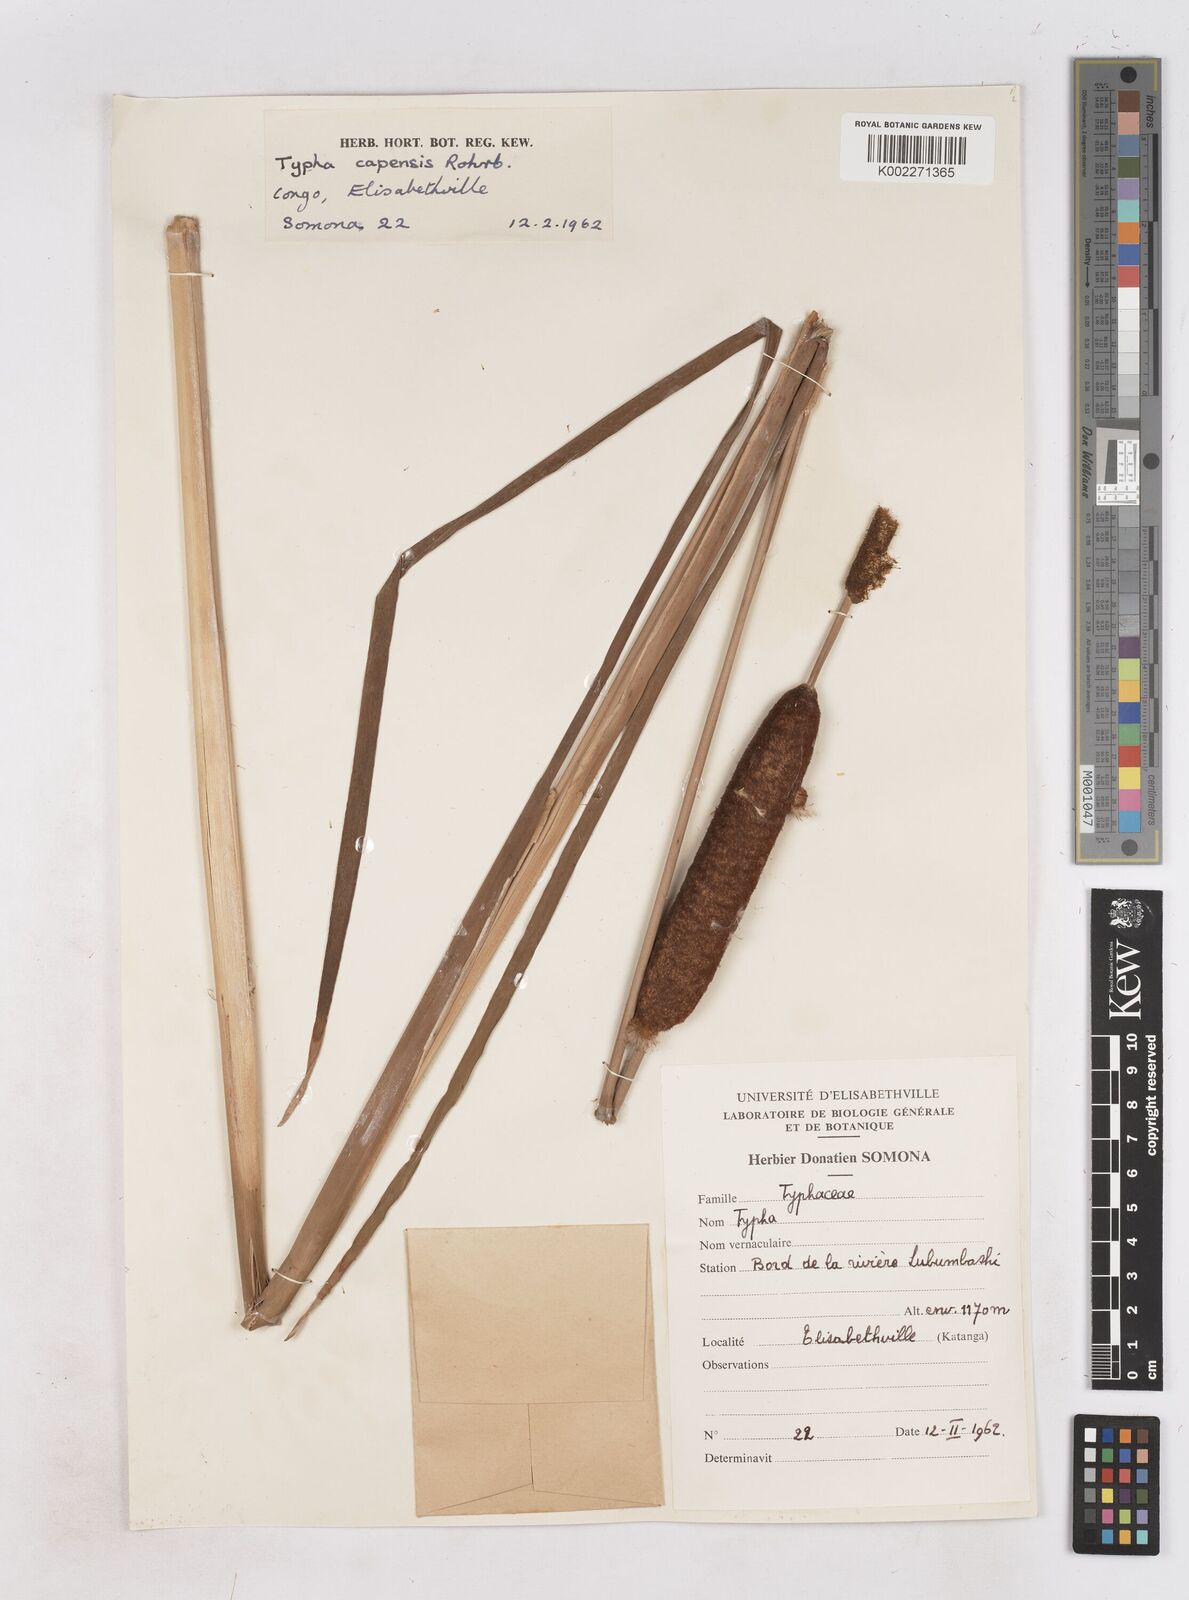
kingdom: Plantae
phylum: Tracheophyta
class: Liliopsida
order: Poales
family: Typhaceae
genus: Typha
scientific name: Typha capensis
